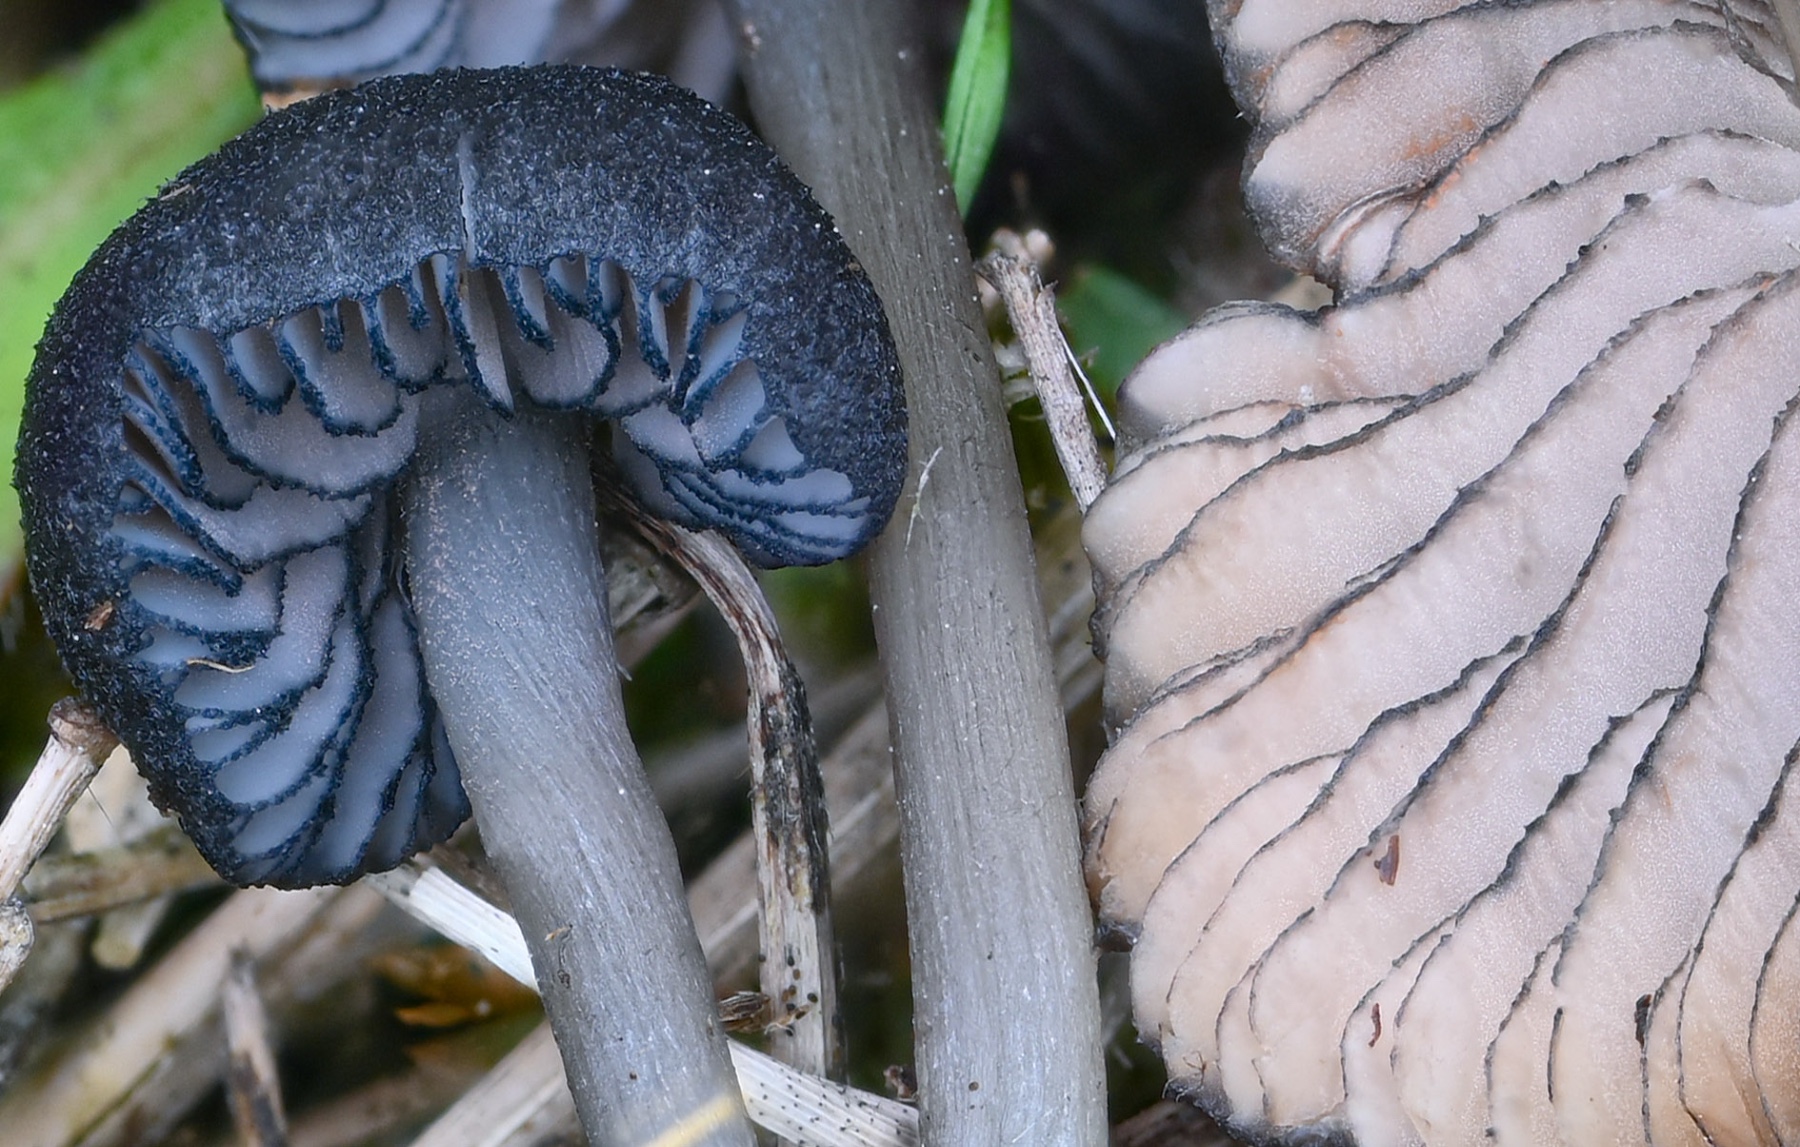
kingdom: Fungi
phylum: Basidiomycota
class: Agaricomycetes
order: Agaricales
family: Entolomataceae
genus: Entoloma
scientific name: Entoloma serrulatum
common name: savbladet rødblad
